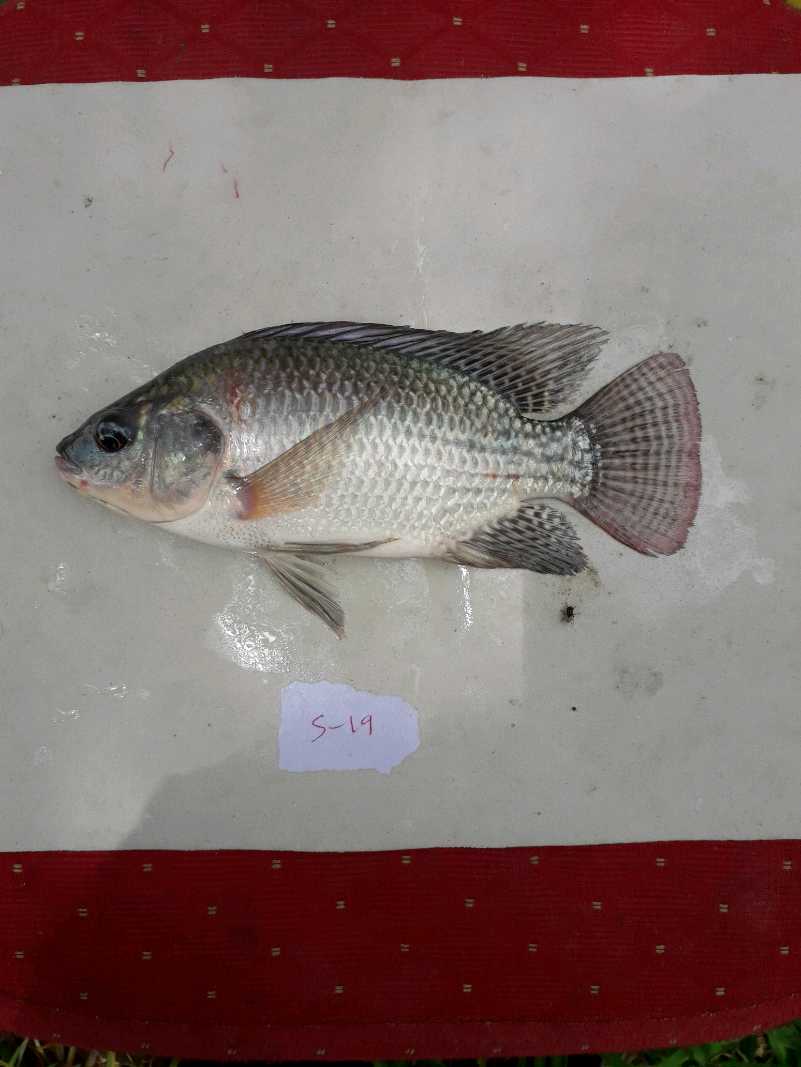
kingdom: Animalia
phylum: Chordata
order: Perciformes
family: Cichlidae
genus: Oreochromis
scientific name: Oreochromis niloticus
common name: Nile tilapia
